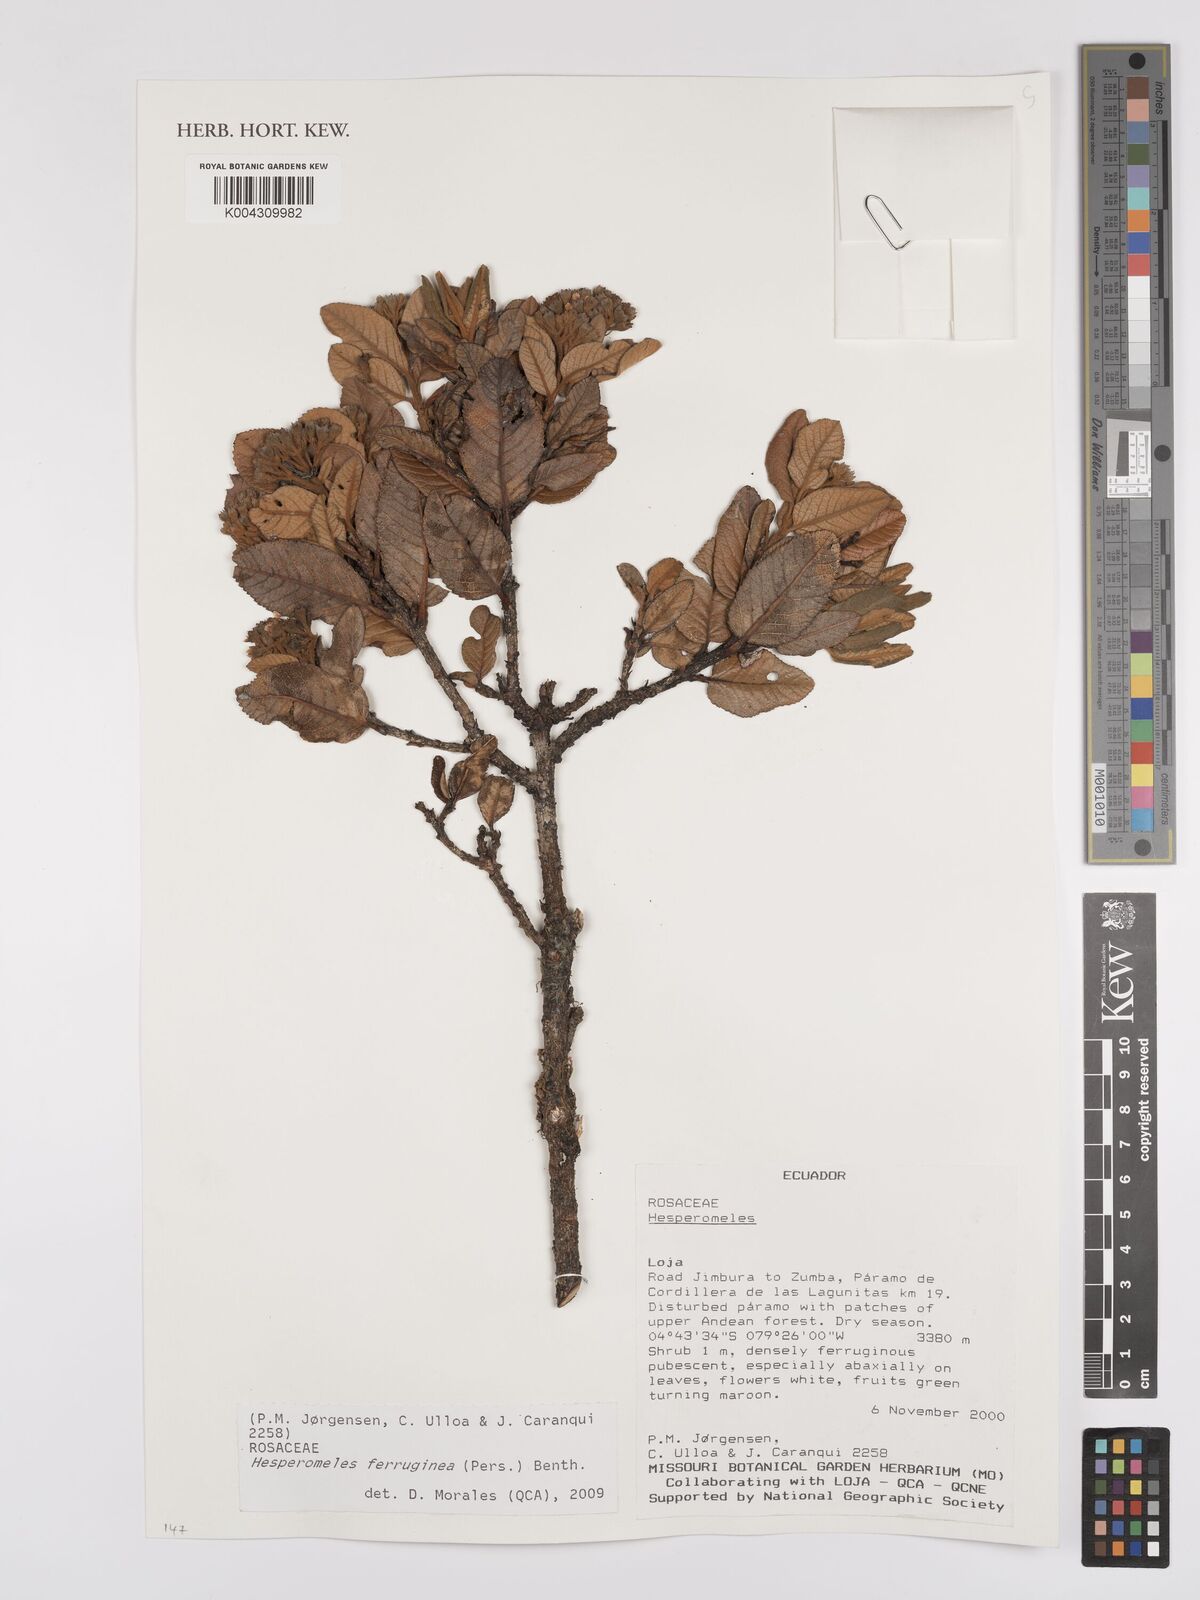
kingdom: Plantae
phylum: Tracheophyta
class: Magnoliopsida
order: Rosales
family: Rosaceae
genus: Hesperomeles
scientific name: Hesperomeles ferruginea
